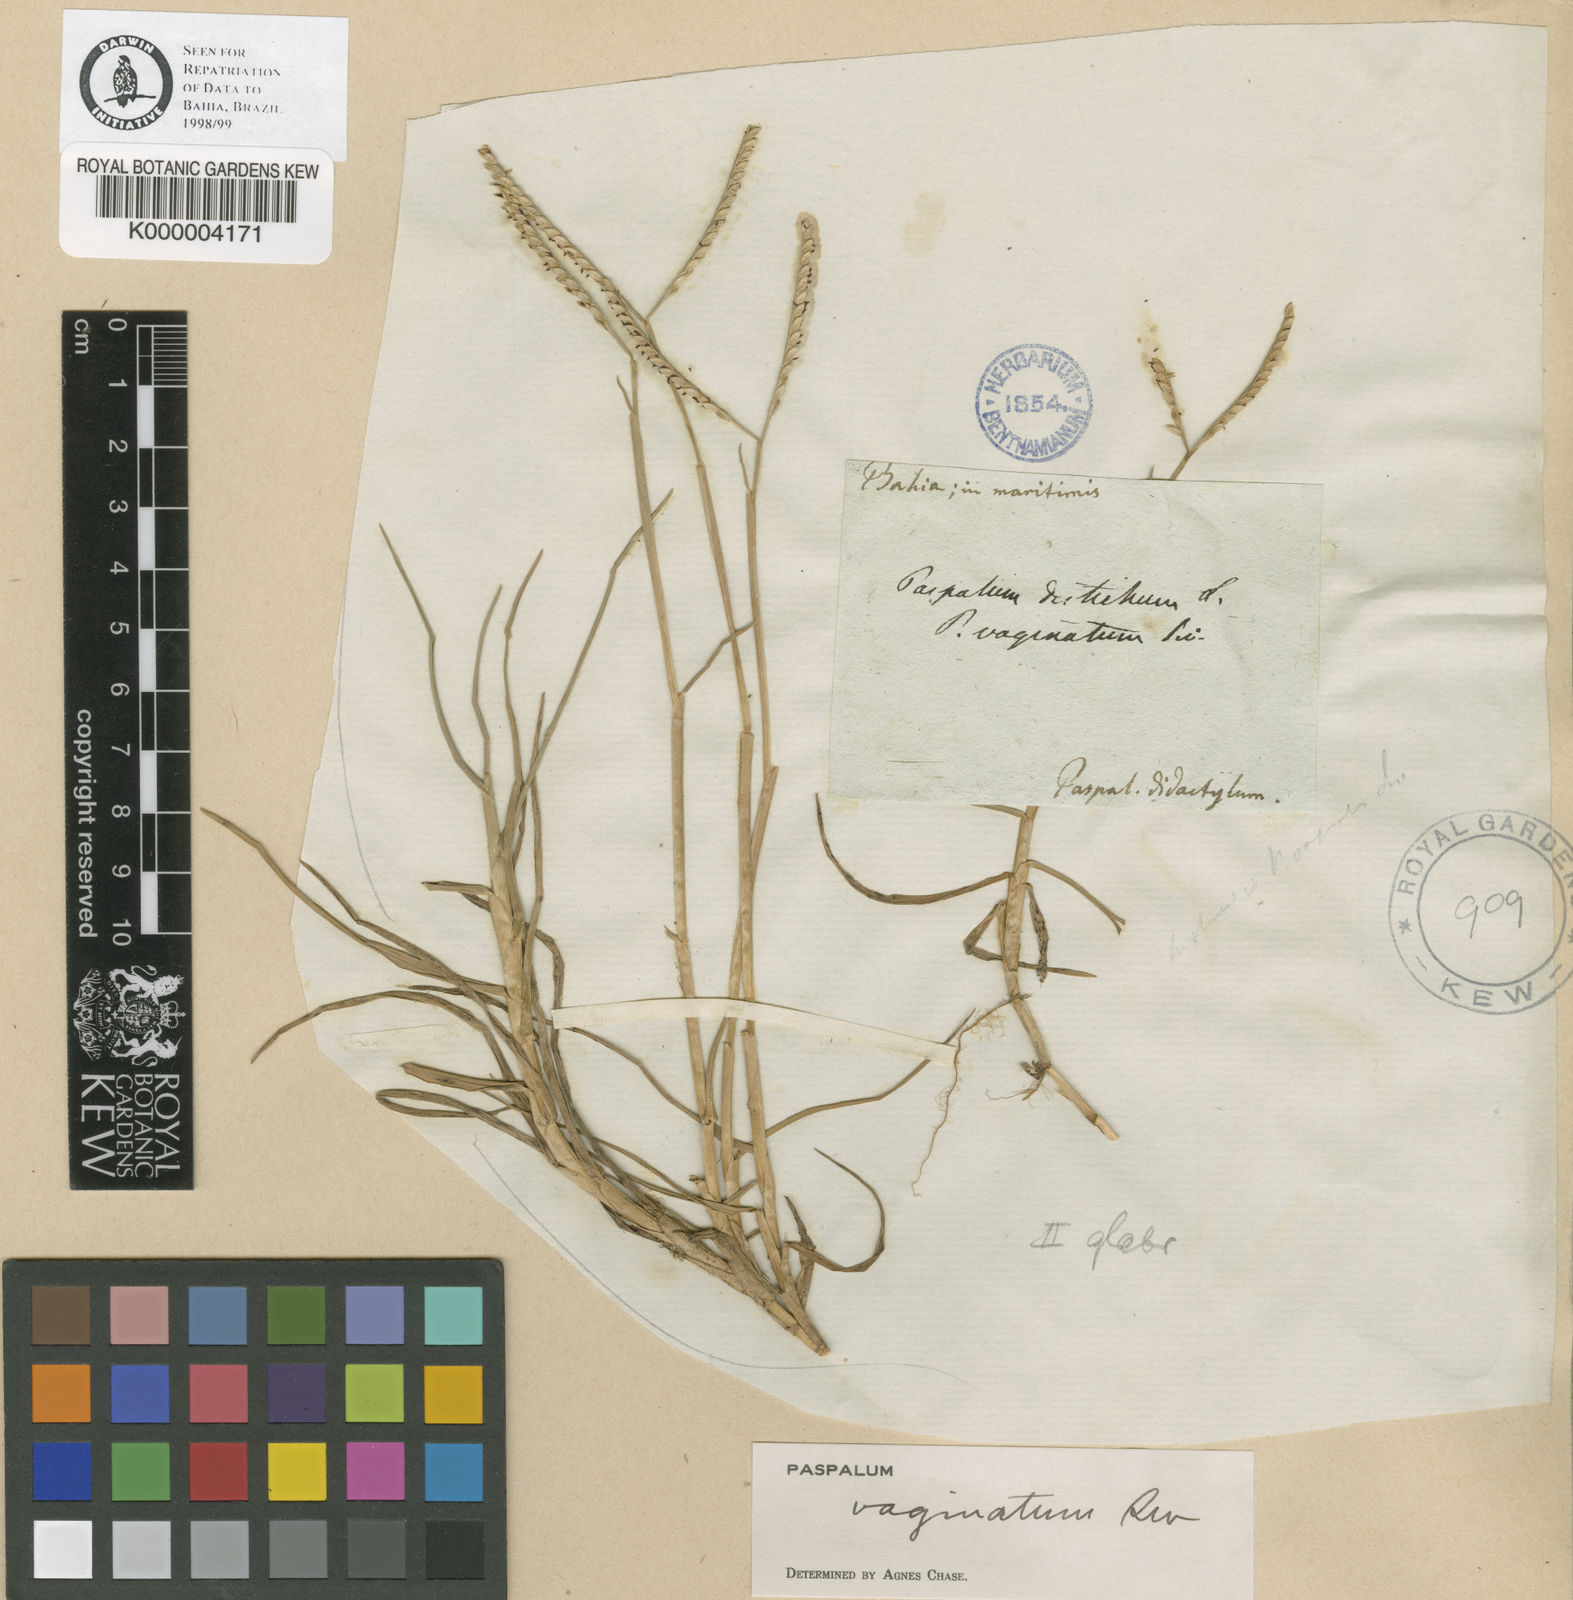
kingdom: Plantae
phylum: Tracheophyta
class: Liliopsida
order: Poales
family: Poaceae
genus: Paspalum
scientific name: Paspalum vaginatum
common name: Seashore paspalum
